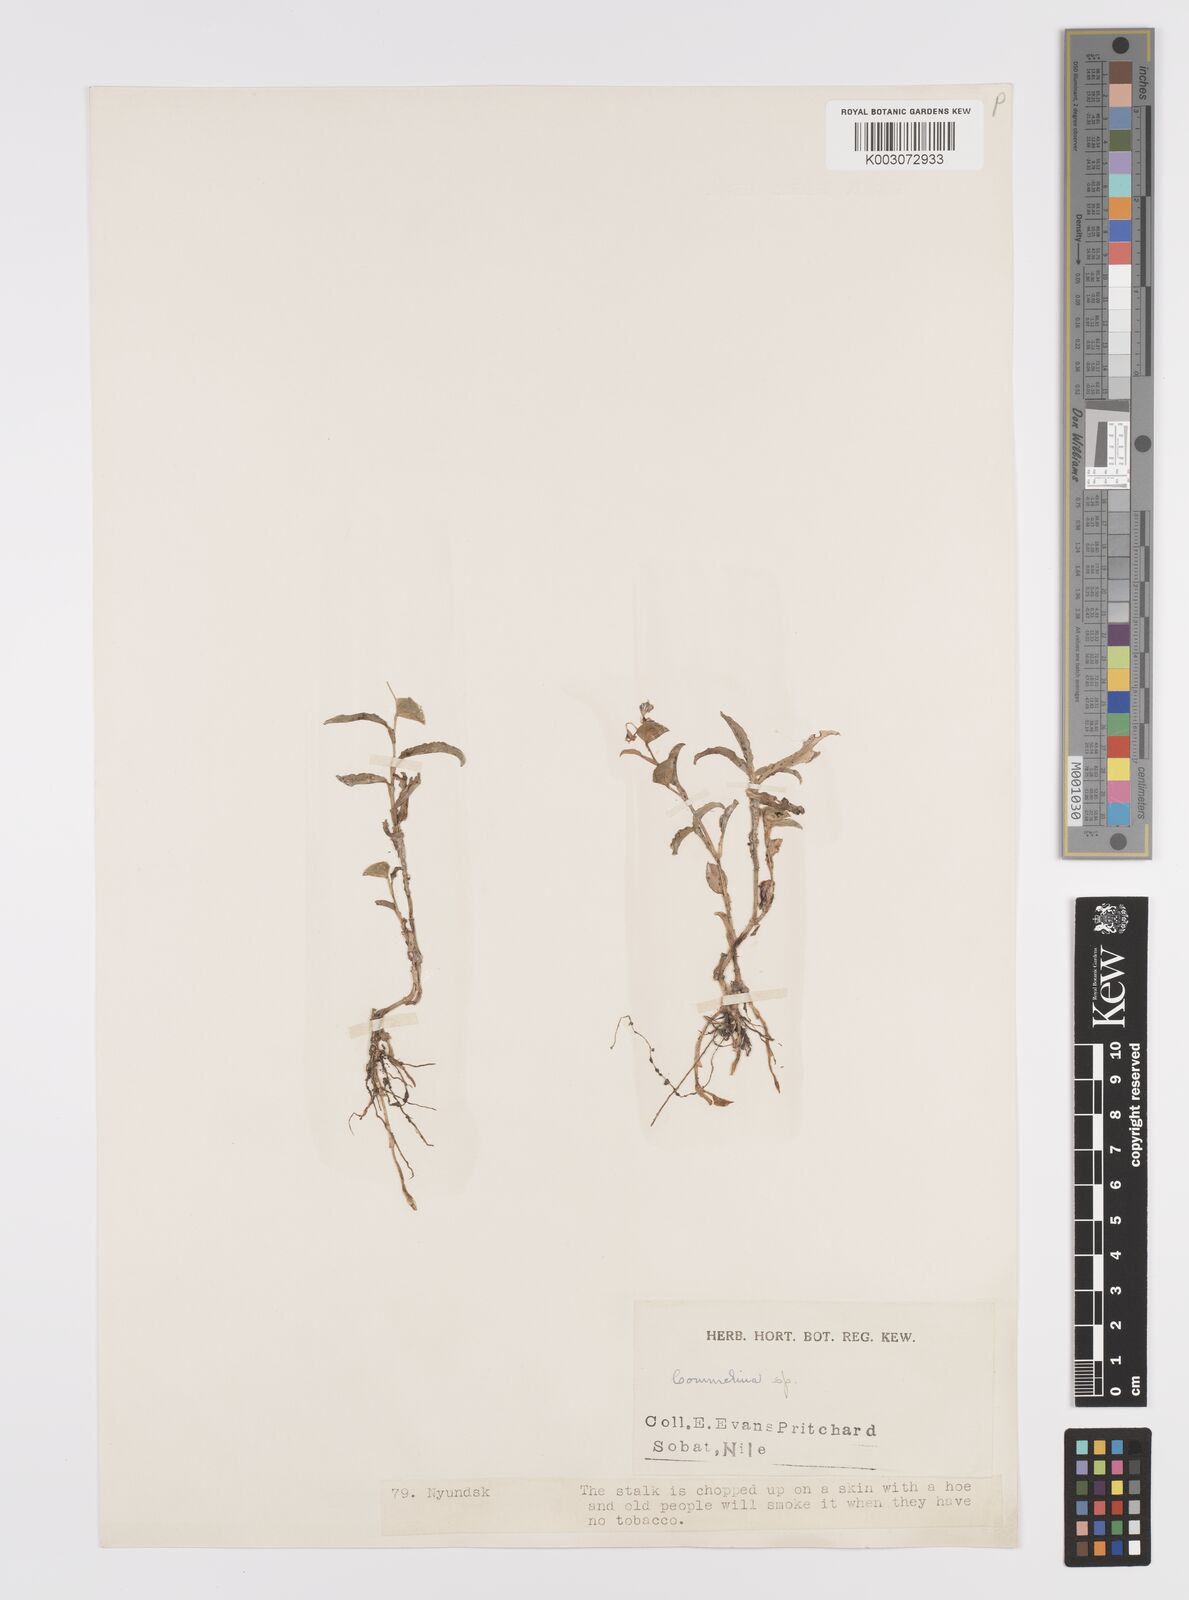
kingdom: Plantae
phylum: Tracheophyta
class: Liliopsida
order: Commelinales
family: Commelinaceae
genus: Commelina
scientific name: Commelina forskaolii
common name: Rat's ear
